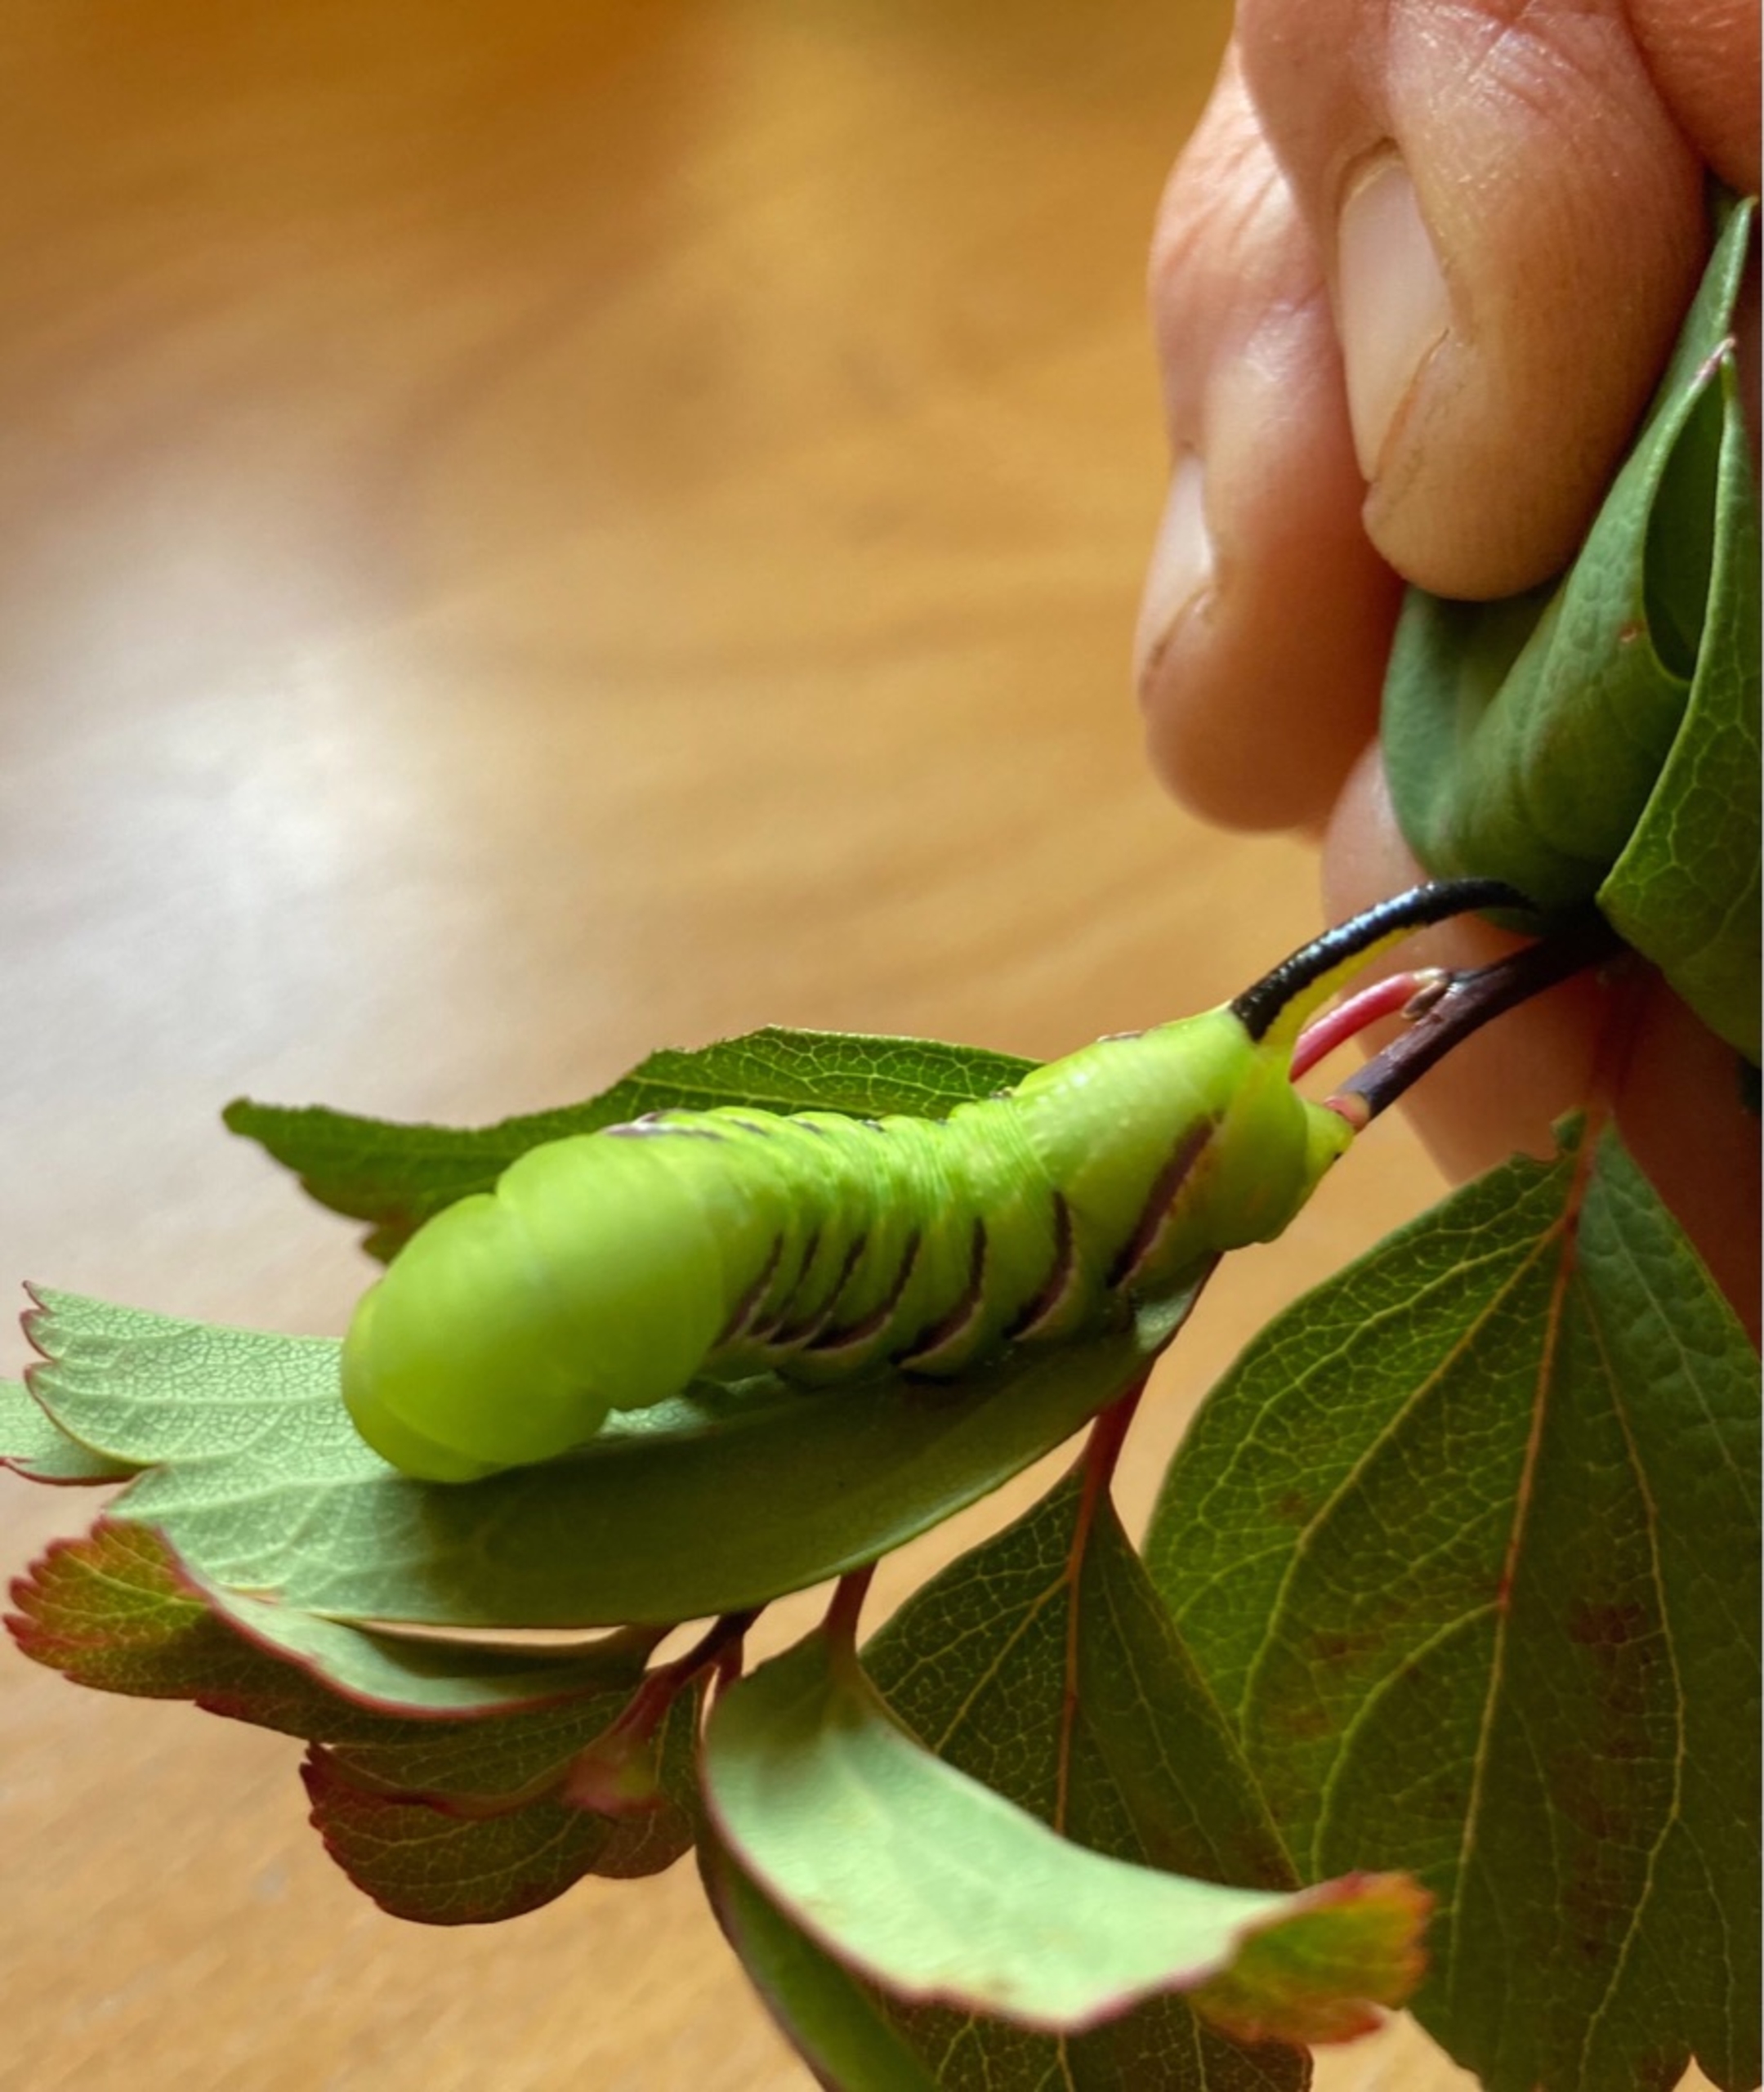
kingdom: Animalia
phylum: Arthropoda
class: Insecta
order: Lepidoptera
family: Sphingidae
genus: Sphinx
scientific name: Sphinx ligustri
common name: Ligustersværmer
